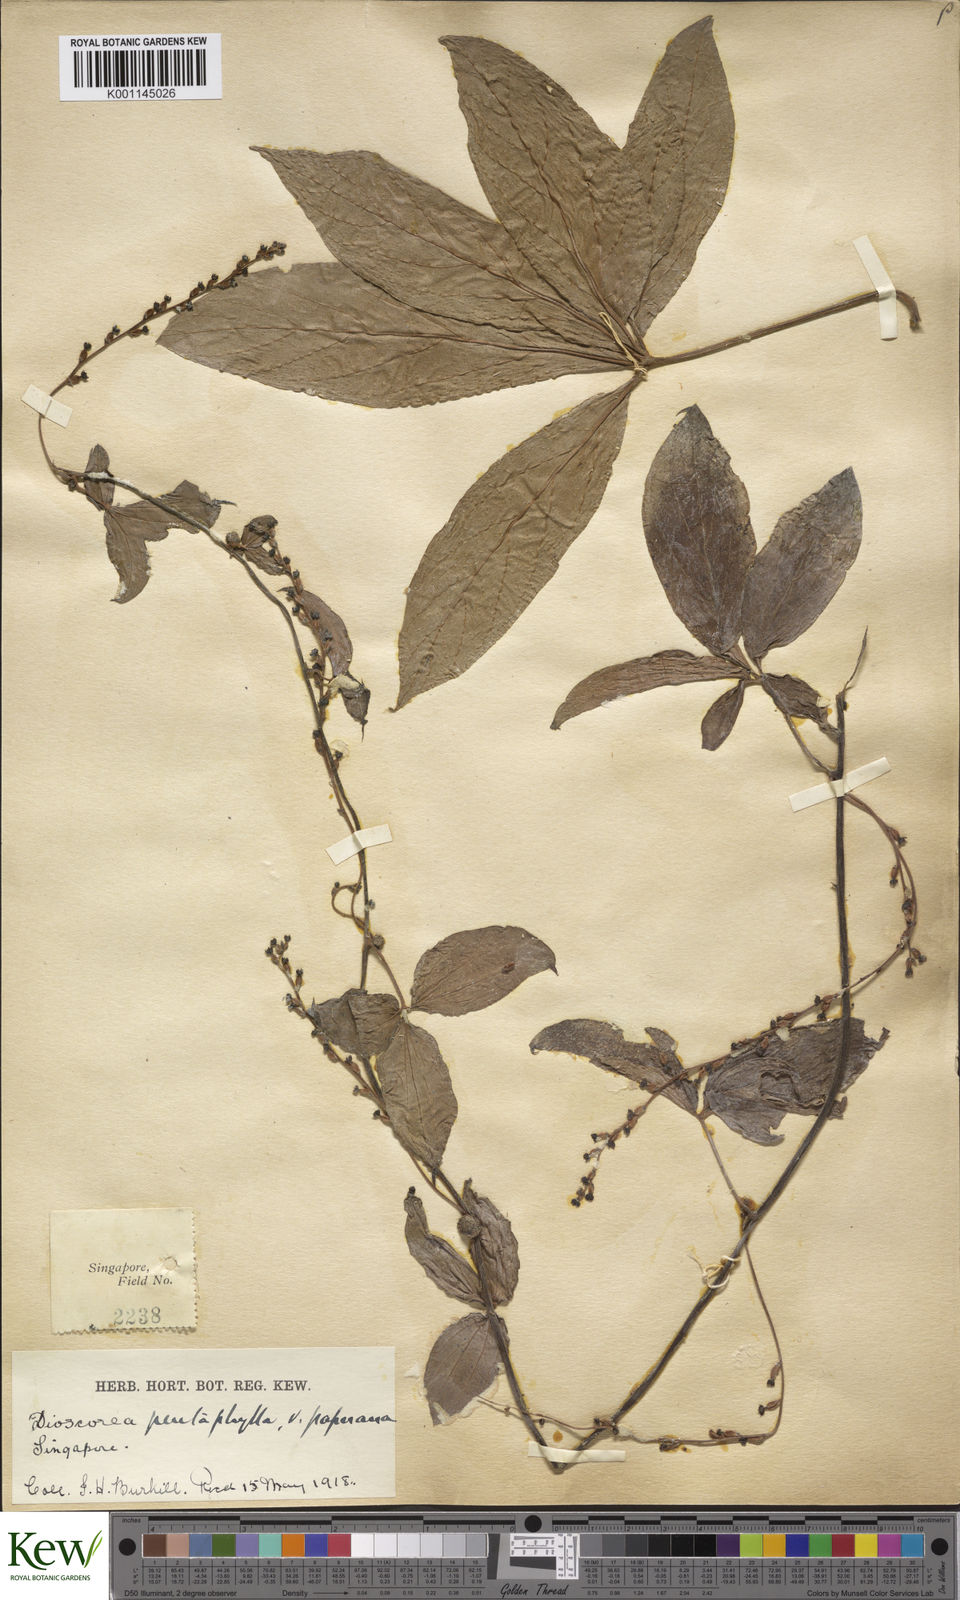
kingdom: Plantae
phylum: Tracheophyta
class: Liliopsida
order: Dioscoreales
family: Dioscoreaceae
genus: Dioscorea
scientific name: Dioscorea pentaphylla
